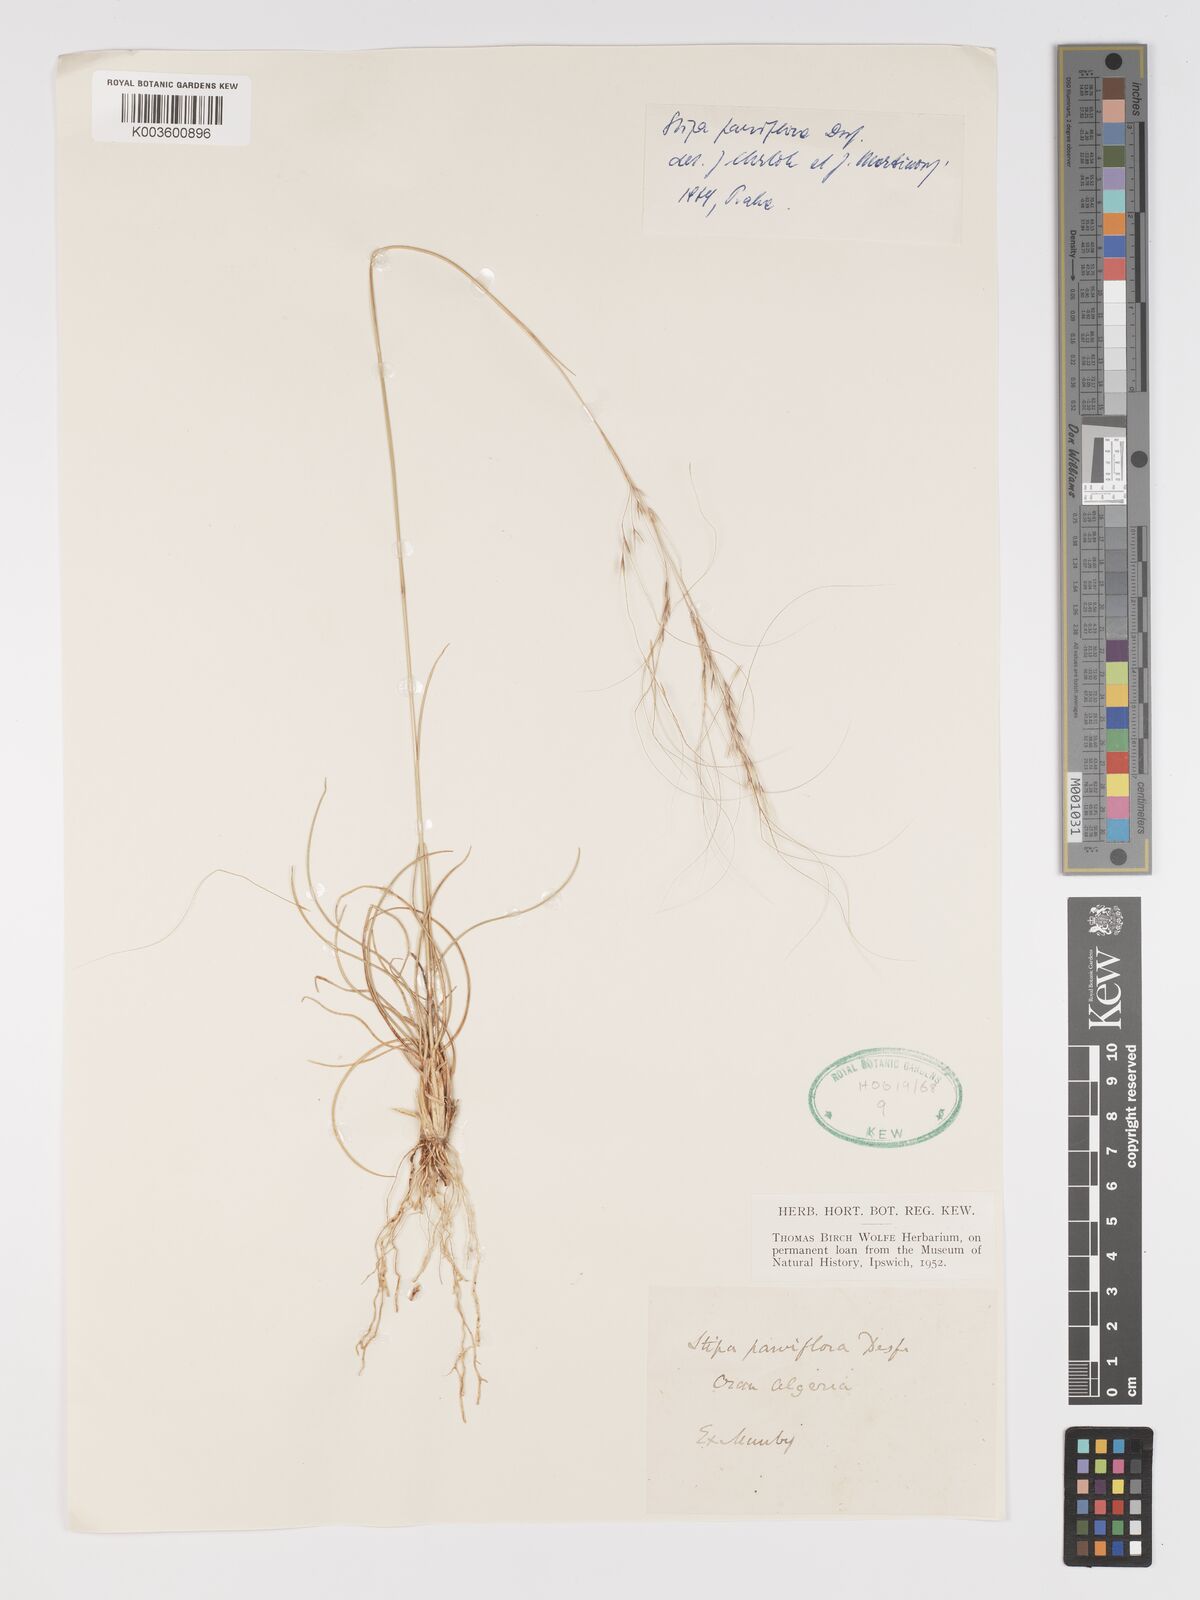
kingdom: Plantae
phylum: Tracheophyta
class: Liliopsida
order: Poales
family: Poaceae
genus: Achnatherum
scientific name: Achnatherum parviflorum
